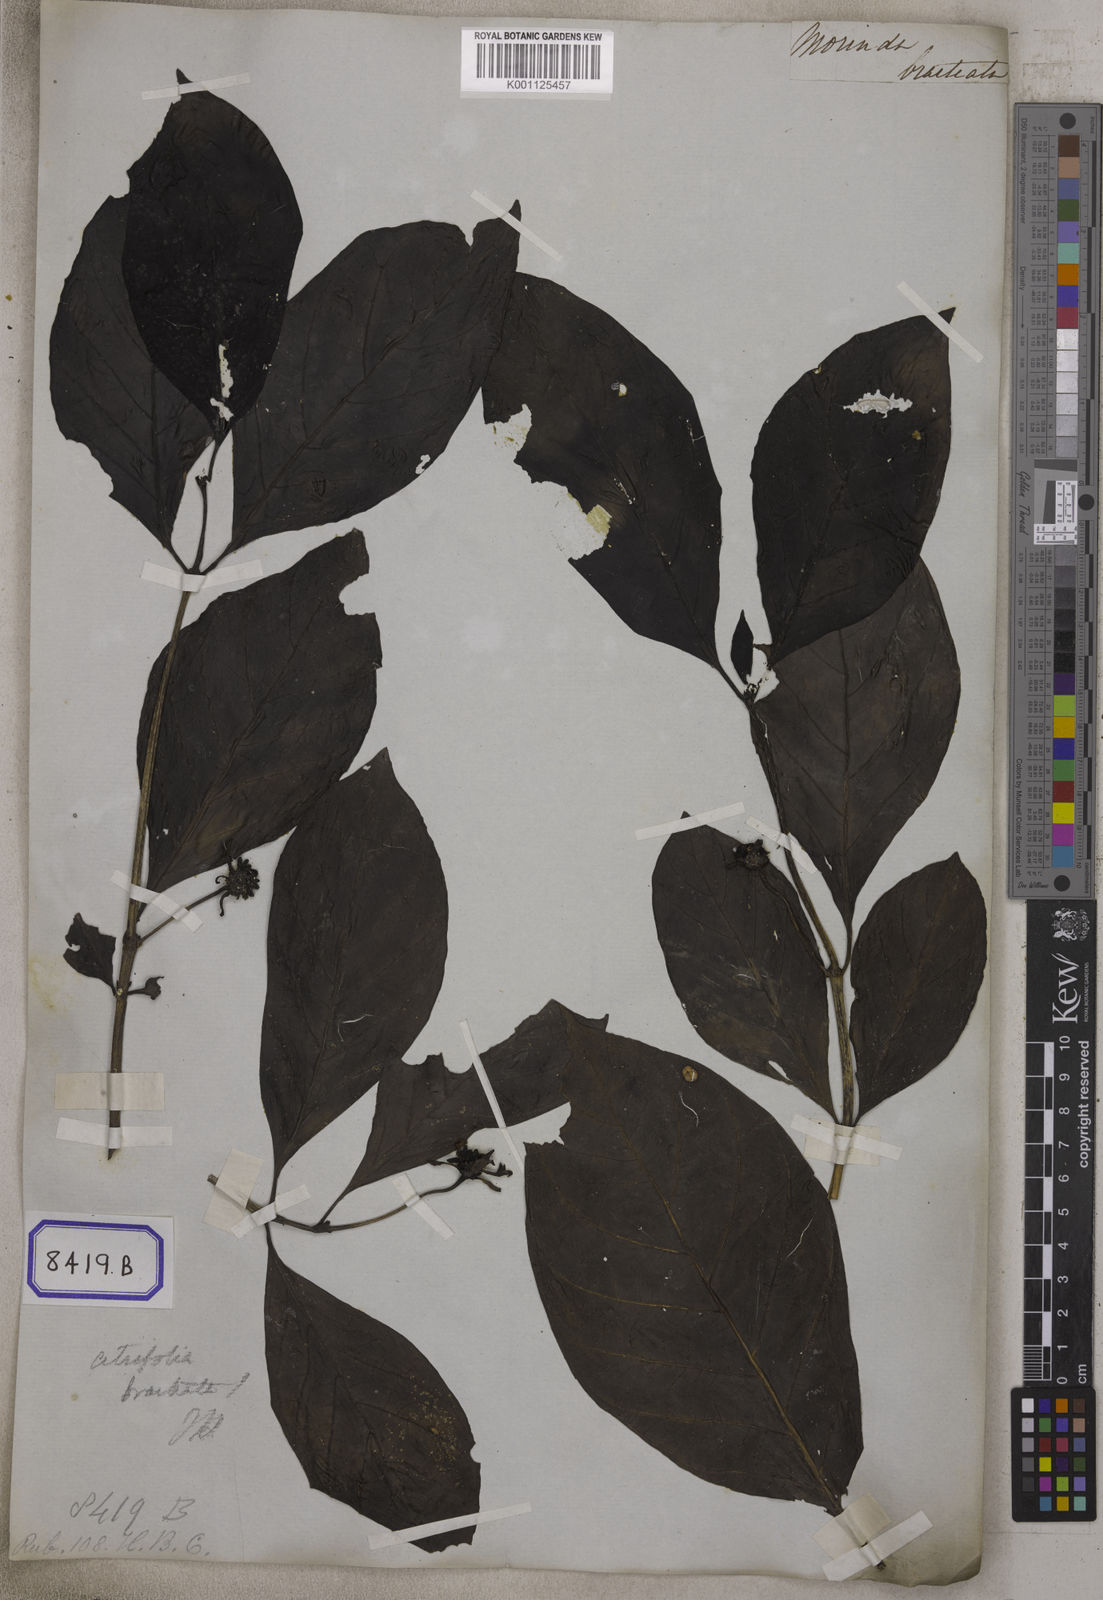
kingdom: Plantae
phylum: Tracheophyta
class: Magnoliopsida
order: Gentianales
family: Rubiaceae
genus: Morinda
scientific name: Morinda bracteata
